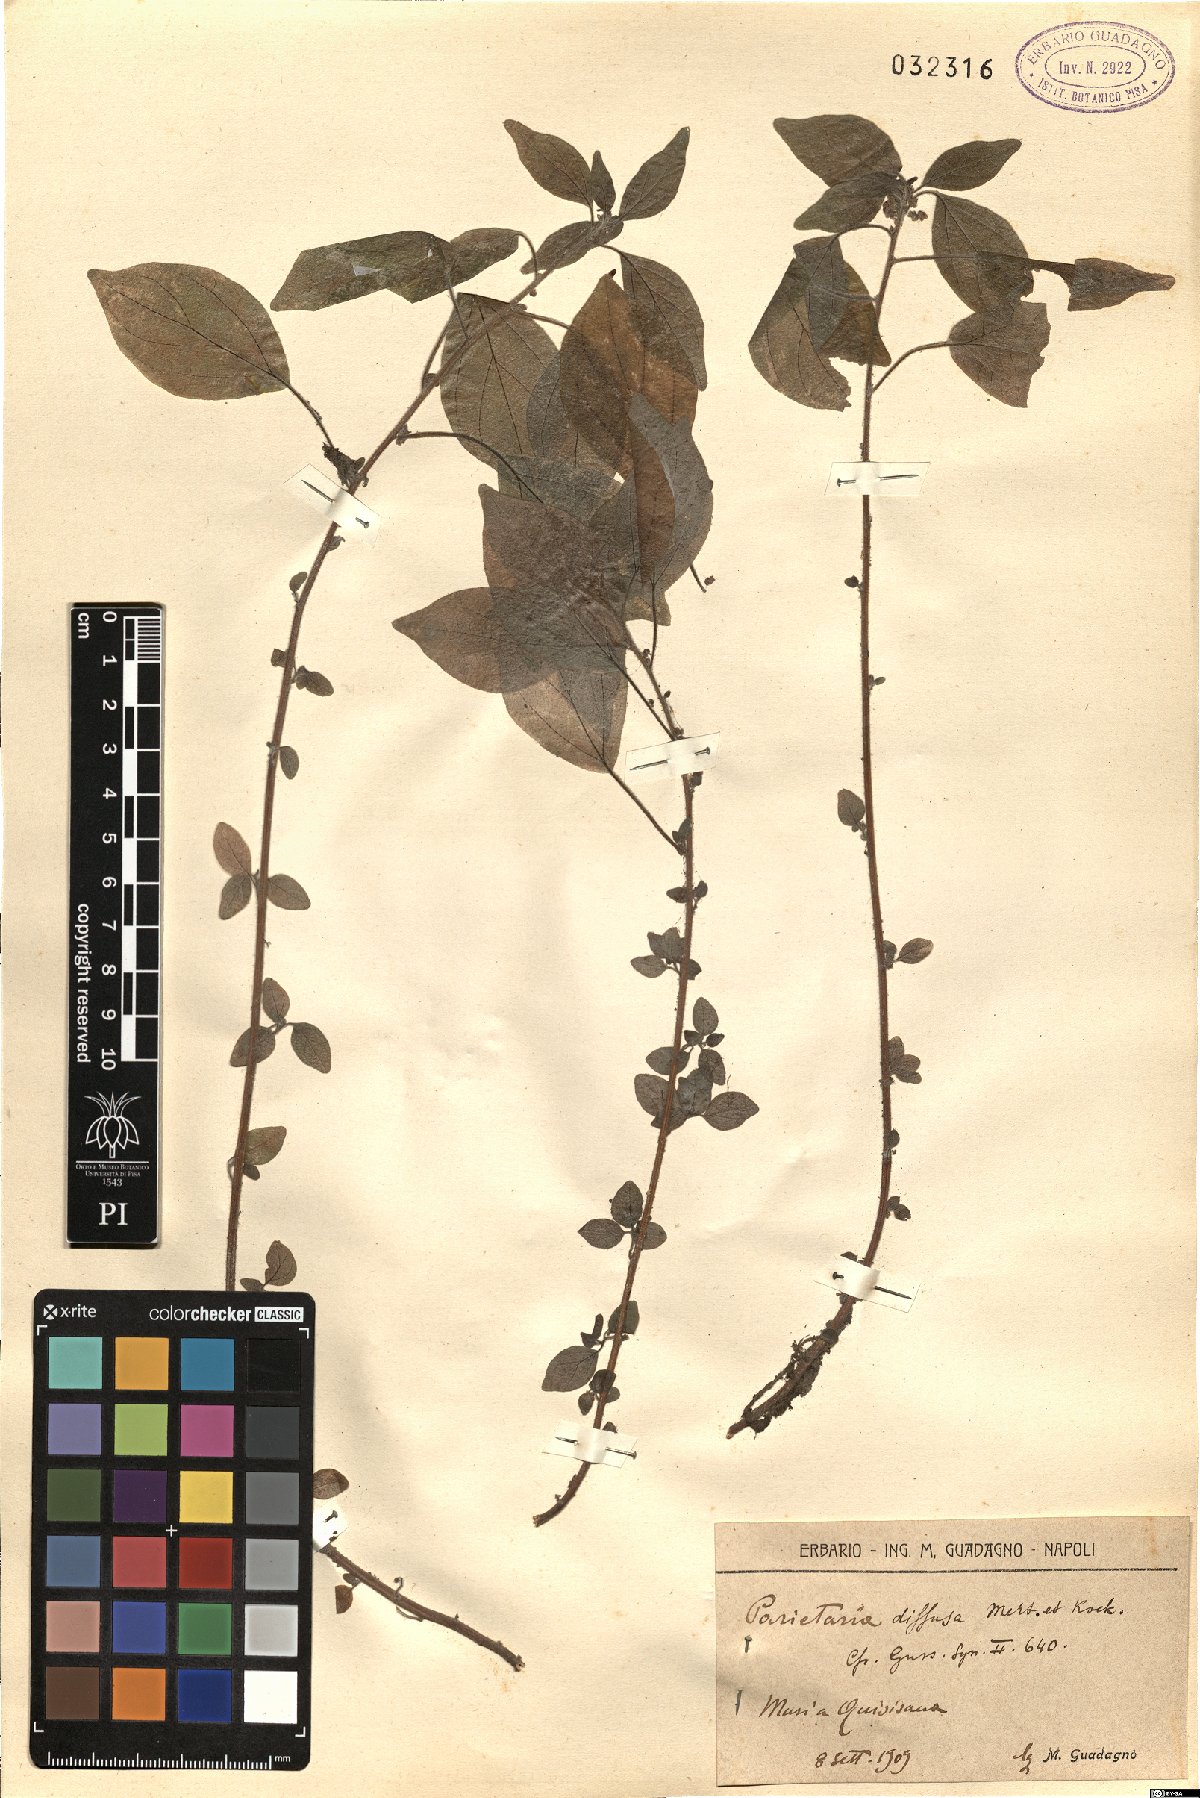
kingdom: Plantae
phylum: Tracheophyta
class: Magnoliopsida
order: Rosales
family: Urticaceae
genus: Parietaria
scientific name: Parietaria judaica
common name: Pellitory-of-the-wall
